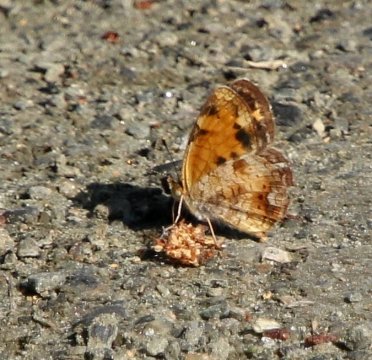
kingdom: Animalia
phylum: Arthropoda
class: Insecta
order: Lepidoptera
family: Nymphalidae
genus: Phyciodes
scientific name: Phyciodes tharos
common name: Pearl Crescent
